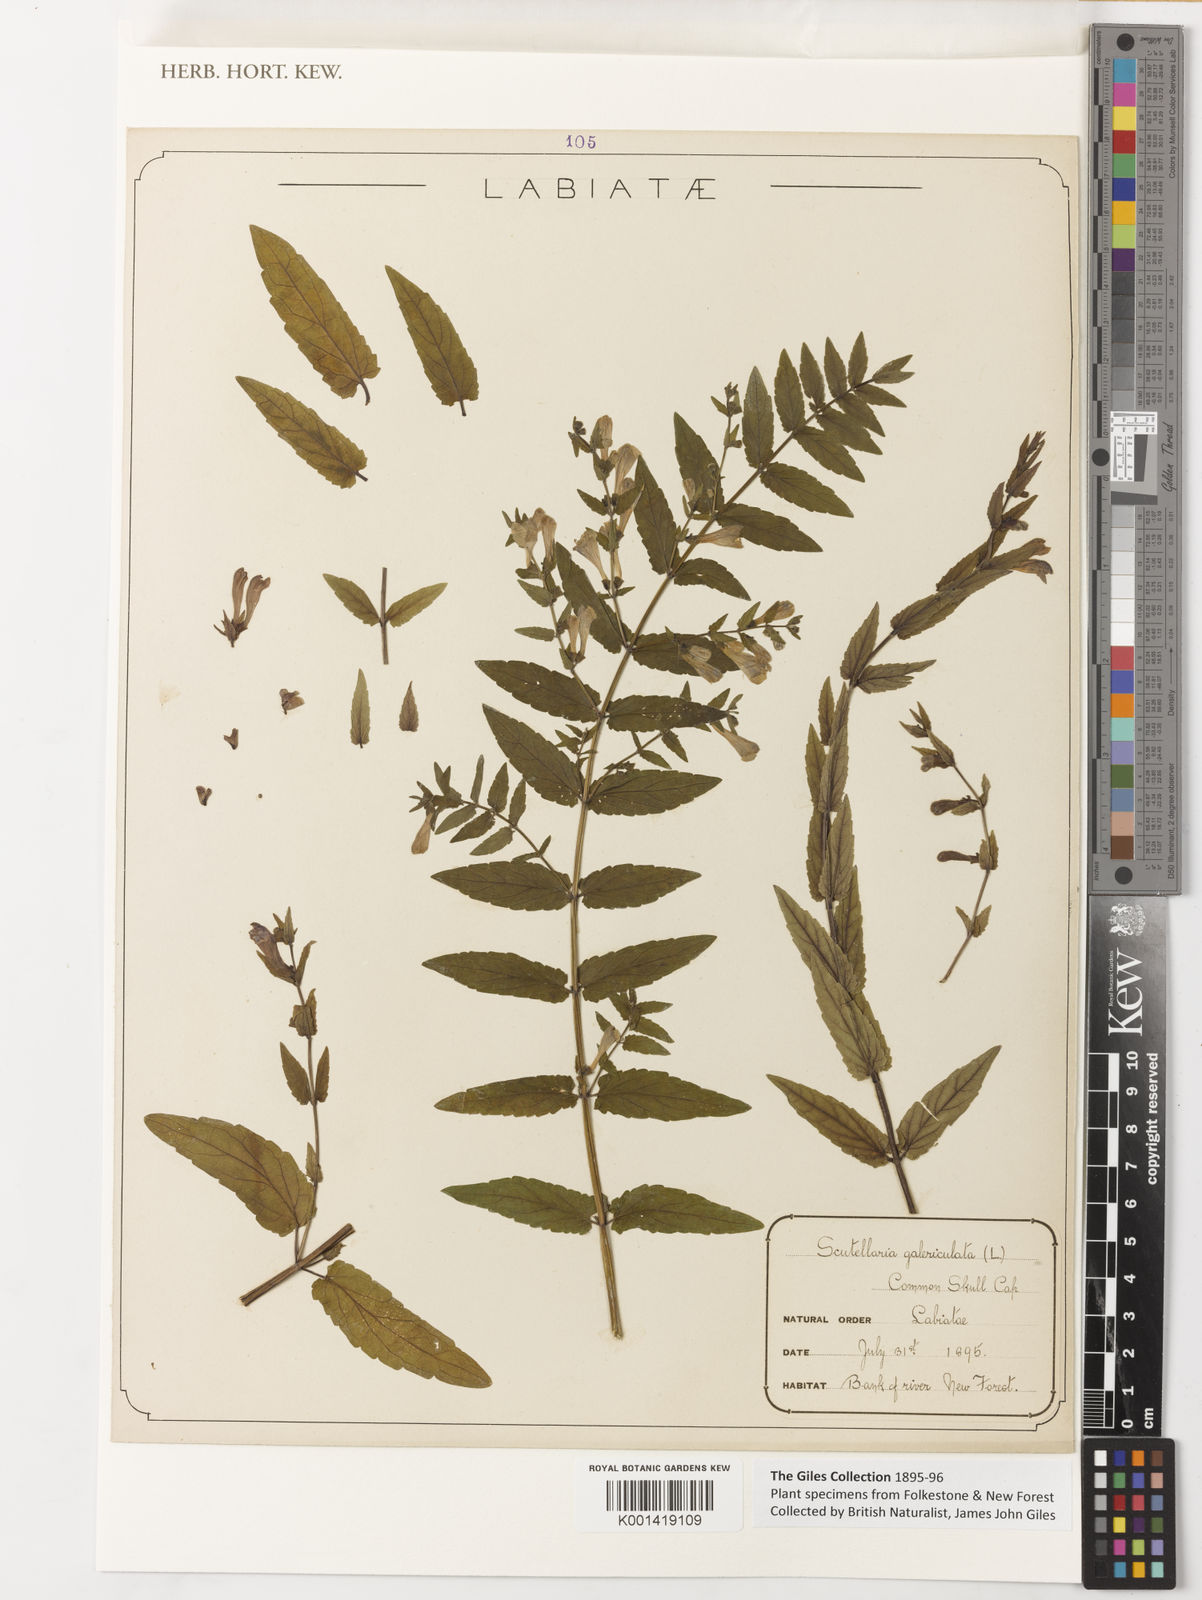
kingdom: Plantae
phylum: Tracheophyta
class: Magnoliopsida
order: Lamiales
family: Lamiaceae
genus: Scutellaria
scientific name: Scutellaria galericulata
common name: Skullcap
